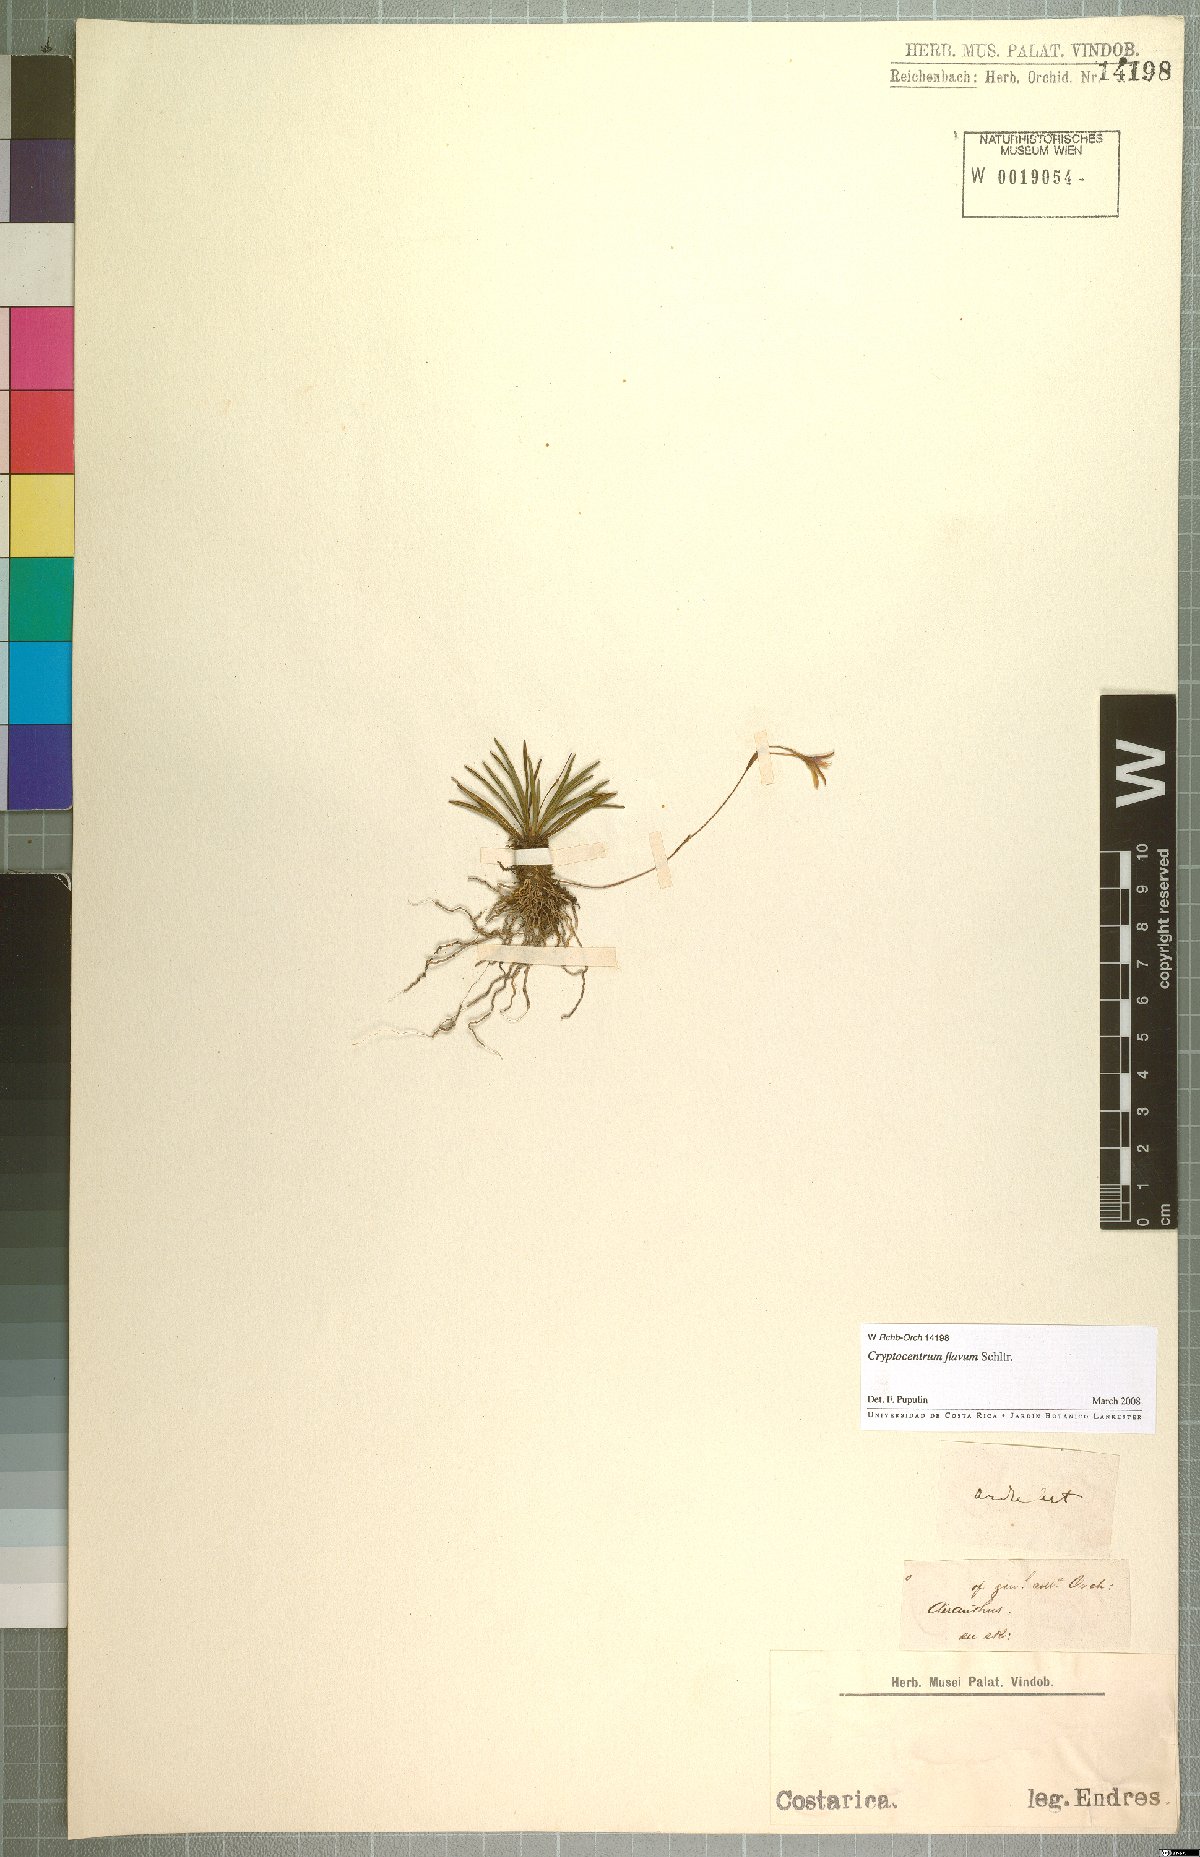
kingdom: Plantae
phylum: Tracheophyta
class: Liliopsida
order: Asparagales
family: Orchidaceae
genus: Maxillaria
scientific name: Maxillaria cryptocentroides
